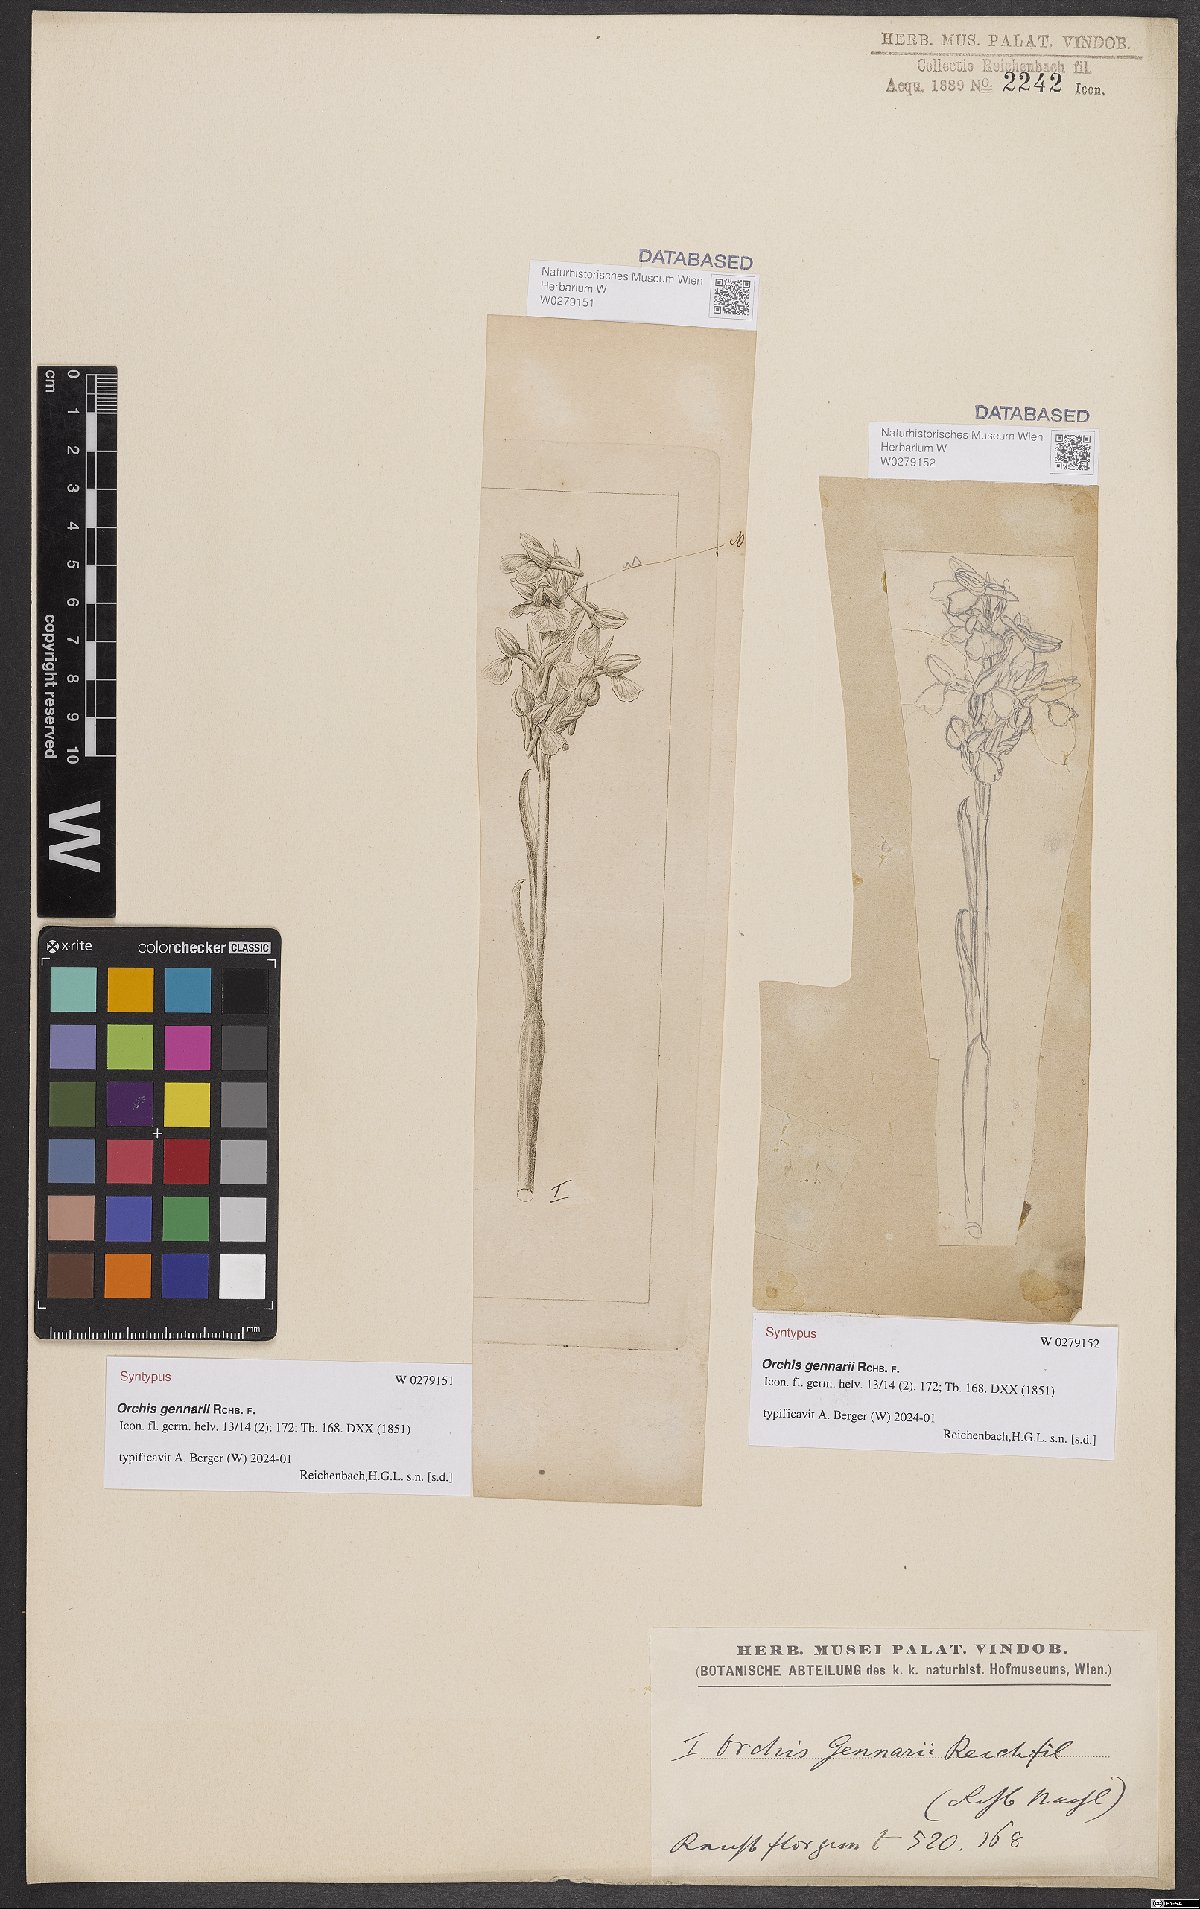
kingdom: Plantae
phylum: Tracheophyta
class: Liliopsida
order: Asparagales
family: Orchidaceae
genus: Anacamptis
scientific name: Anacamptis nicodemi
